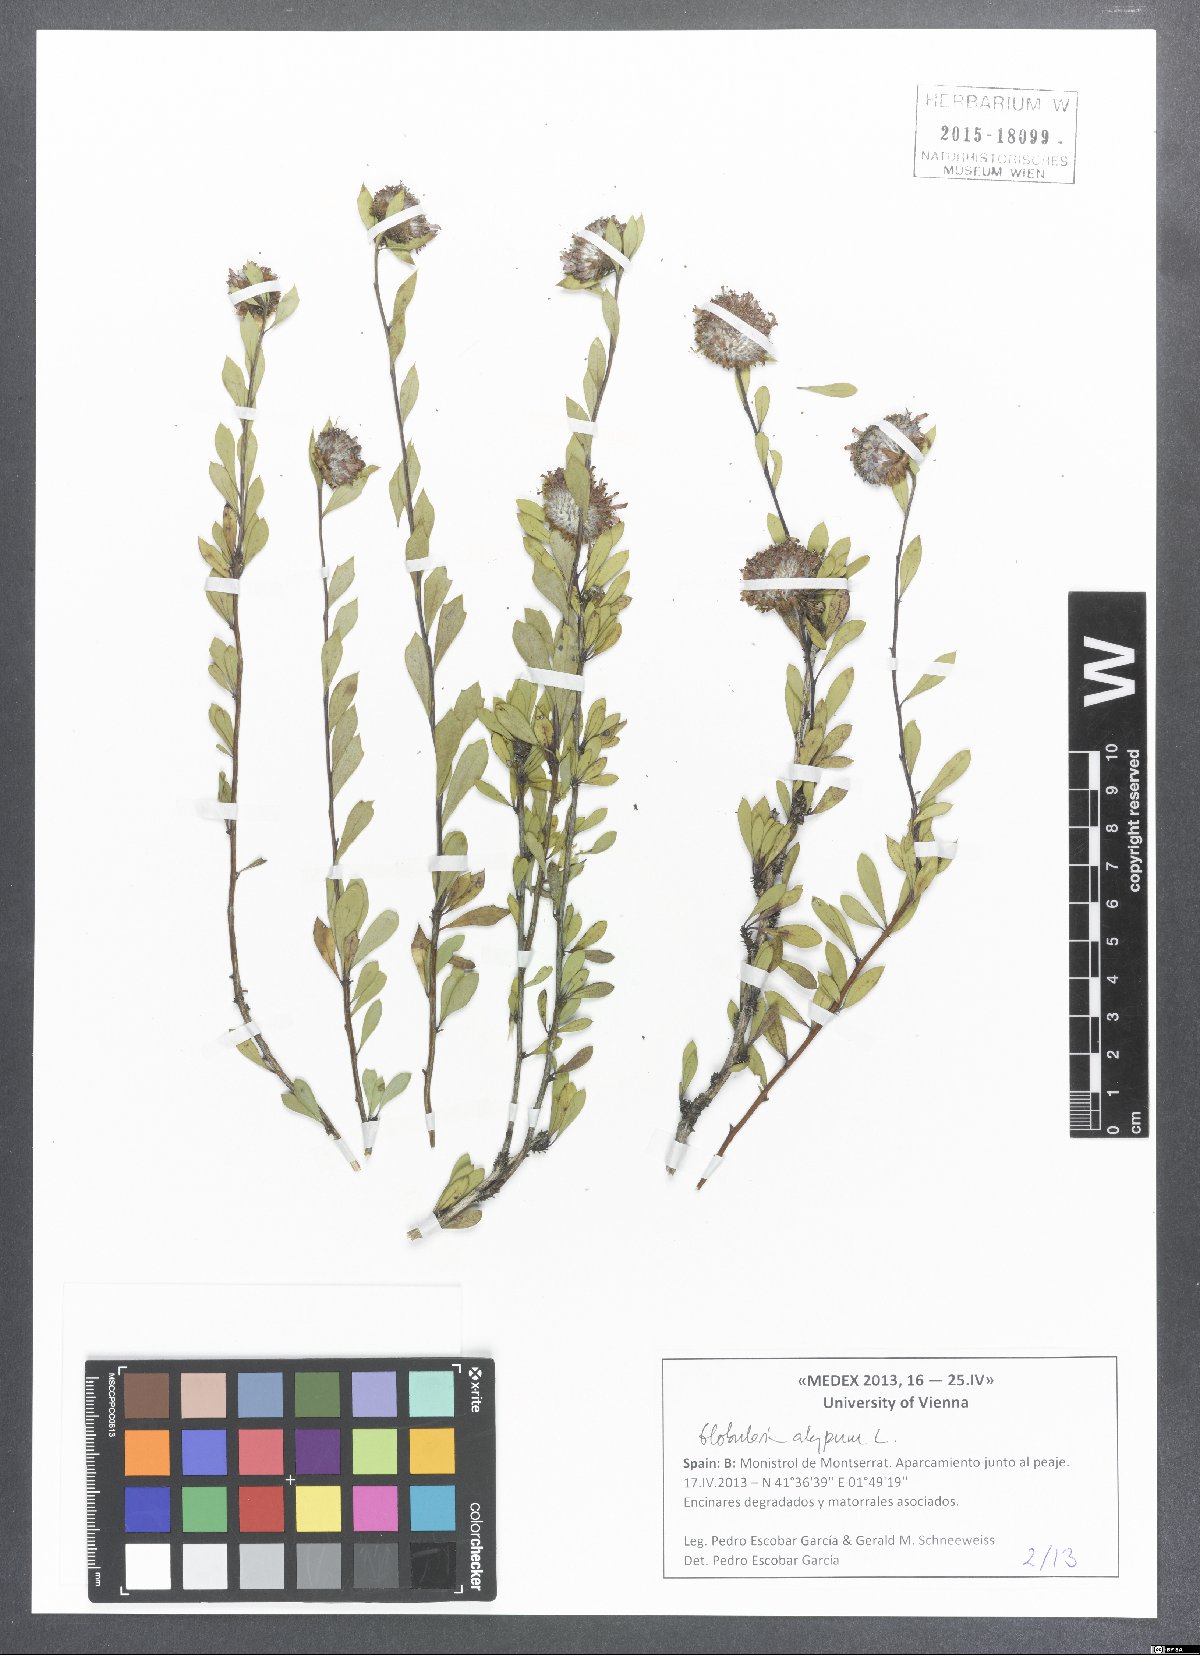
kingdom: Plantae
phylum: Tracheophyta
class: Magnoliopsida
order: Lamiales
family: Plantaginaceae
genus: Globularia
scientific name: Globularia alypum
